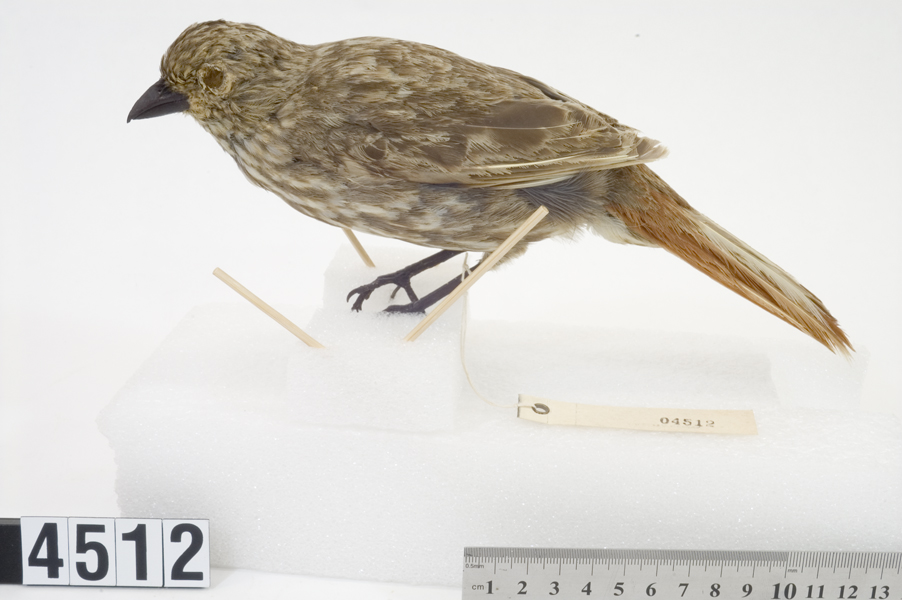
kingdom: Animalia
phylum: Chordata
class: Aves
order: Passeriformes
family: Ptilonorhynchidae
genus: Turnagra
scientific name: Turnagra capensis
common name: South island piopio
